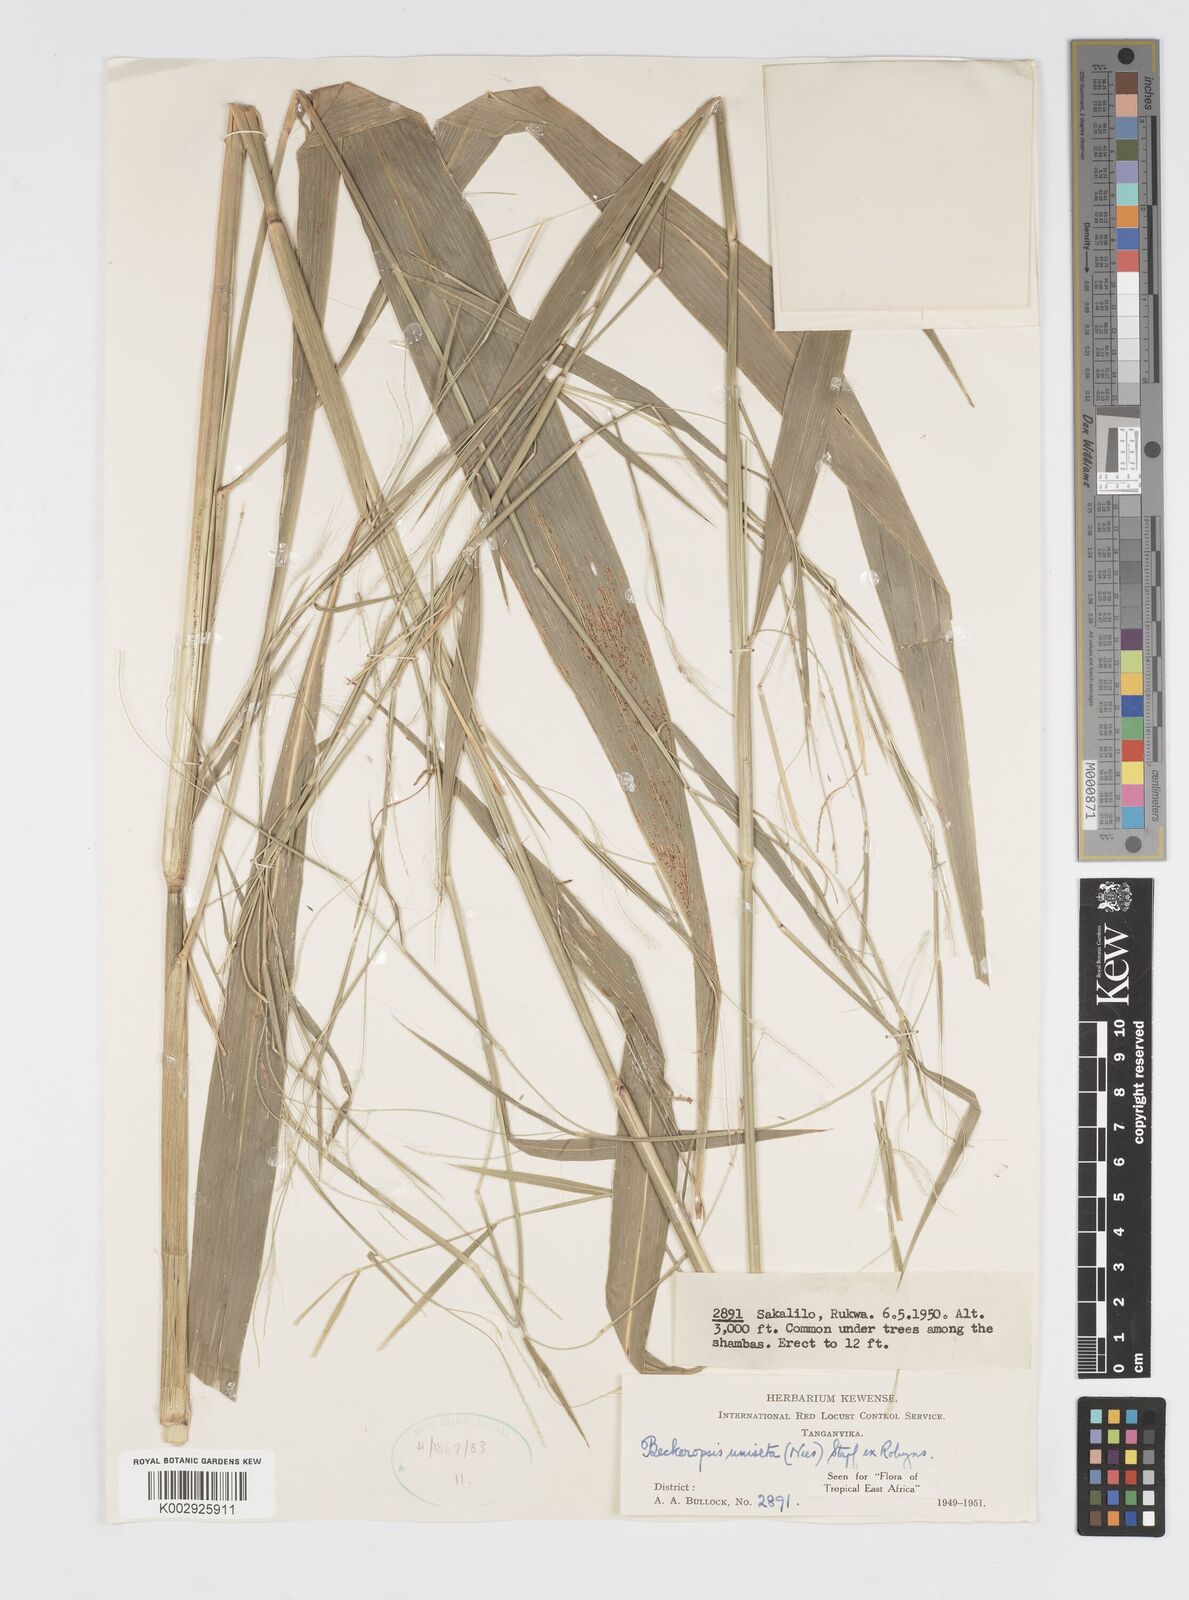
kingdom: Plantae
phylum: Tracheophyta
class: Liliopsida
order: Poales
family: Poaceae
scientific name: Poaceae
